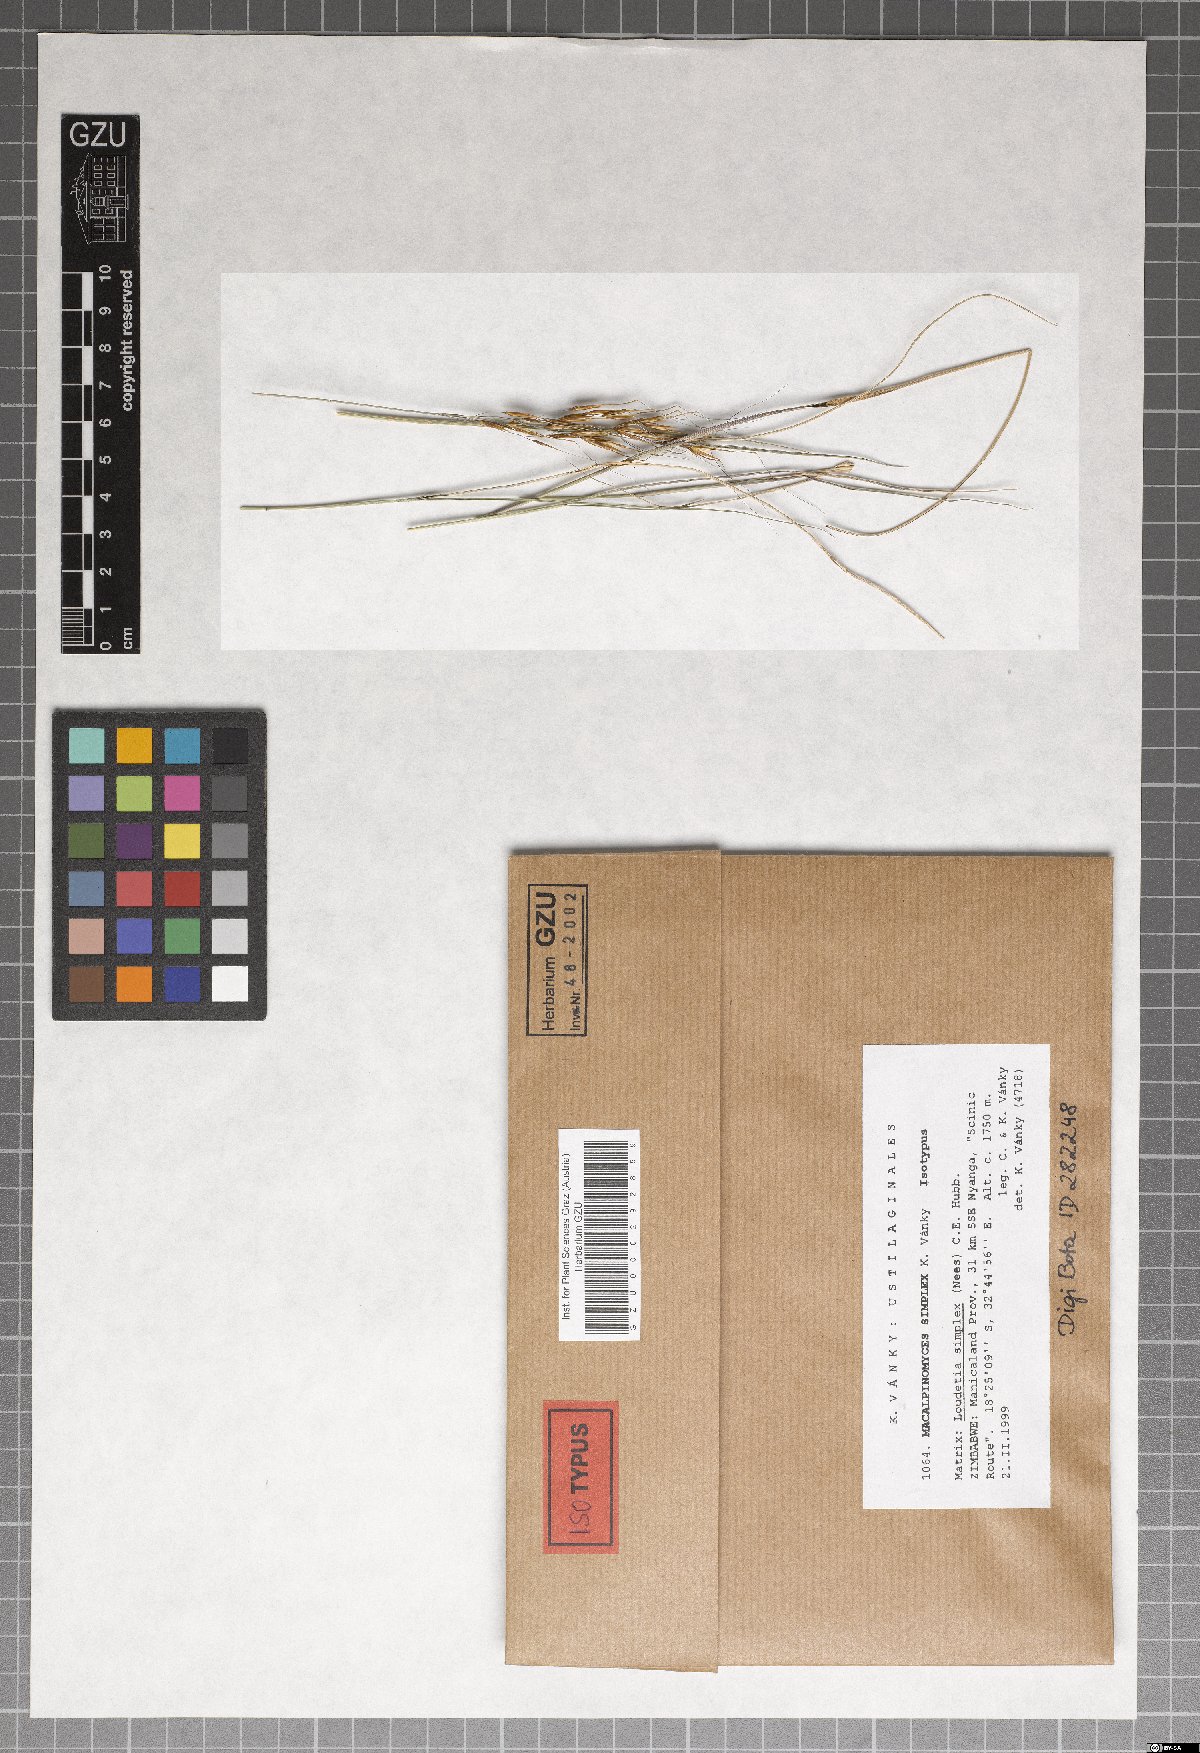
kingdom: Fungi
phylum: Basidiomycota
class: Ustilaginomycetes
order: Ustilaginales
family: Ustilaginaceae
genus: Macalpinomyces
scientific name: Macalpinomyces simplex
